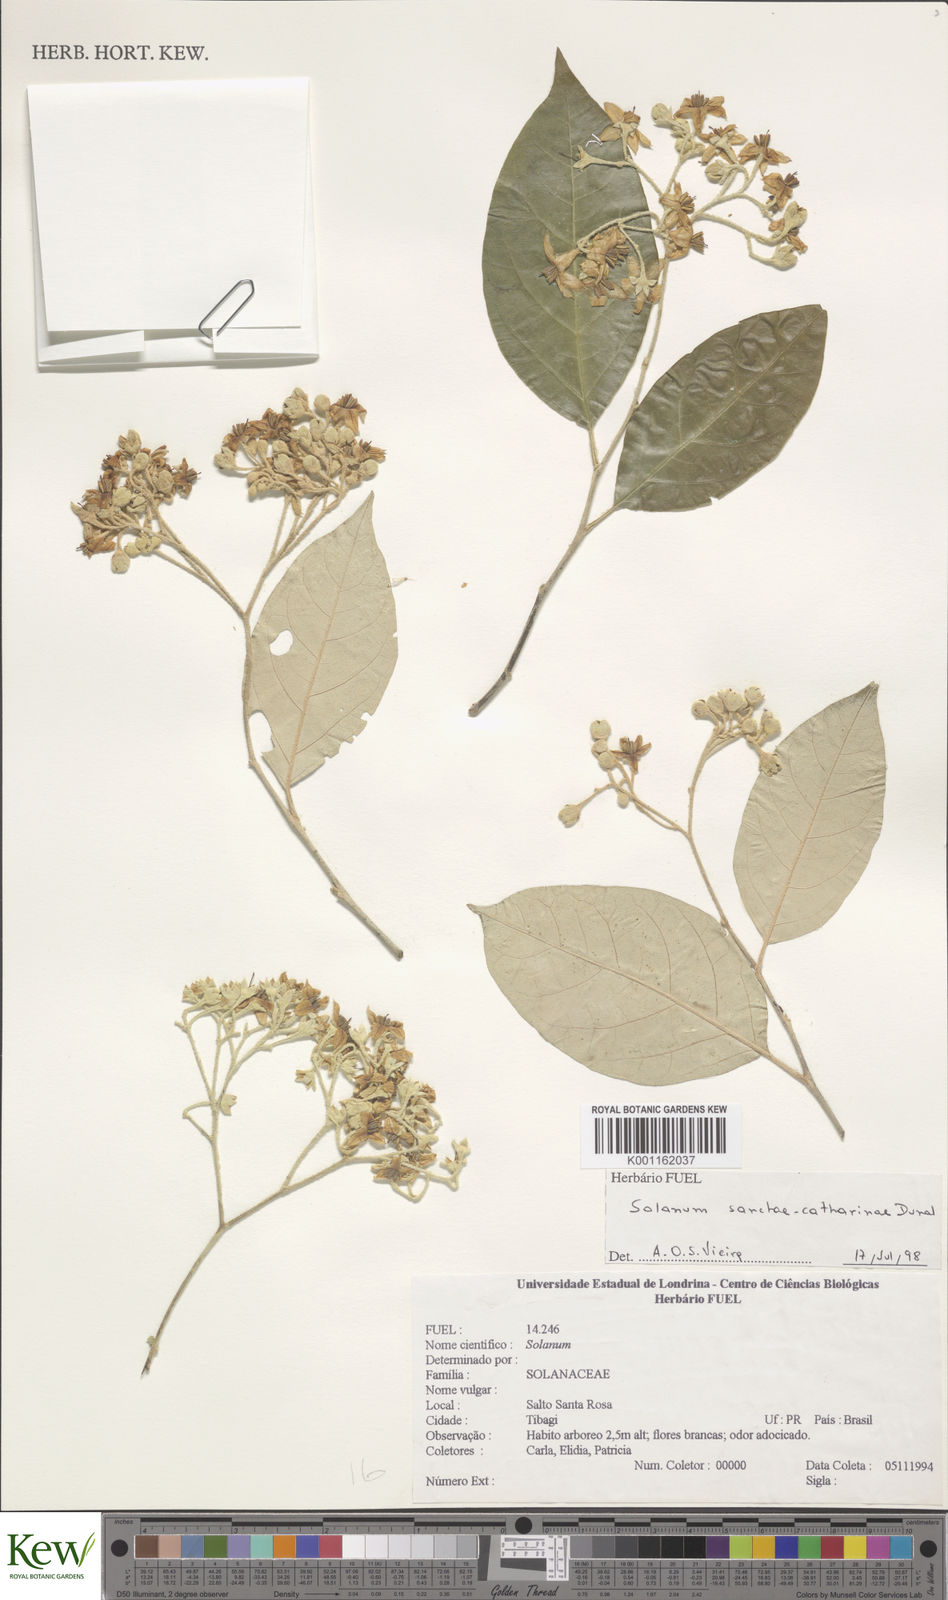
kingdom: Plantae
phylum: Tracheophyta
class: Magnoliopsida
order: Solanales
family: Solanaceae
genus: Solanum
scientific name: Solanum sanctae-catharinae
